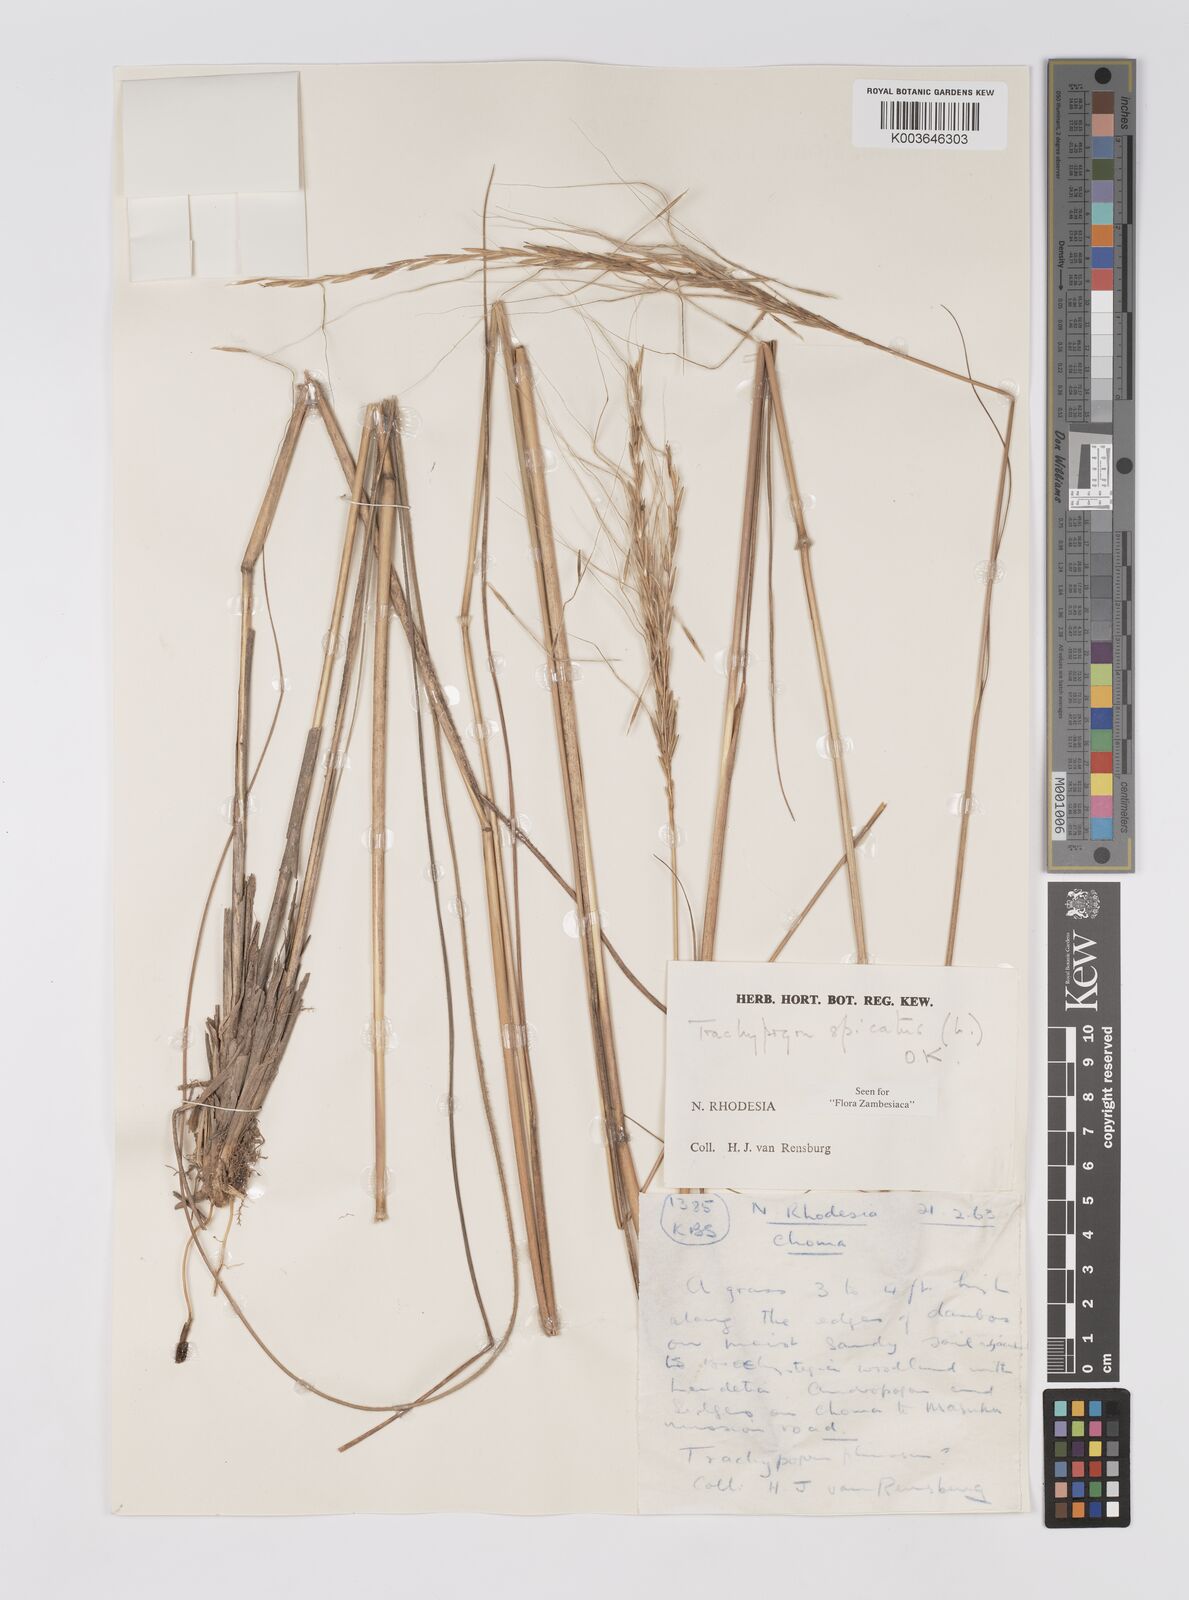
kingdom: Plantae
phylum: Tracheophyta
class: Liliopsida
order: Poales
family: Poaceae
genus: Trachypogon
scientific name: Trachypogon spicatus
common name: Crinkle-awn
